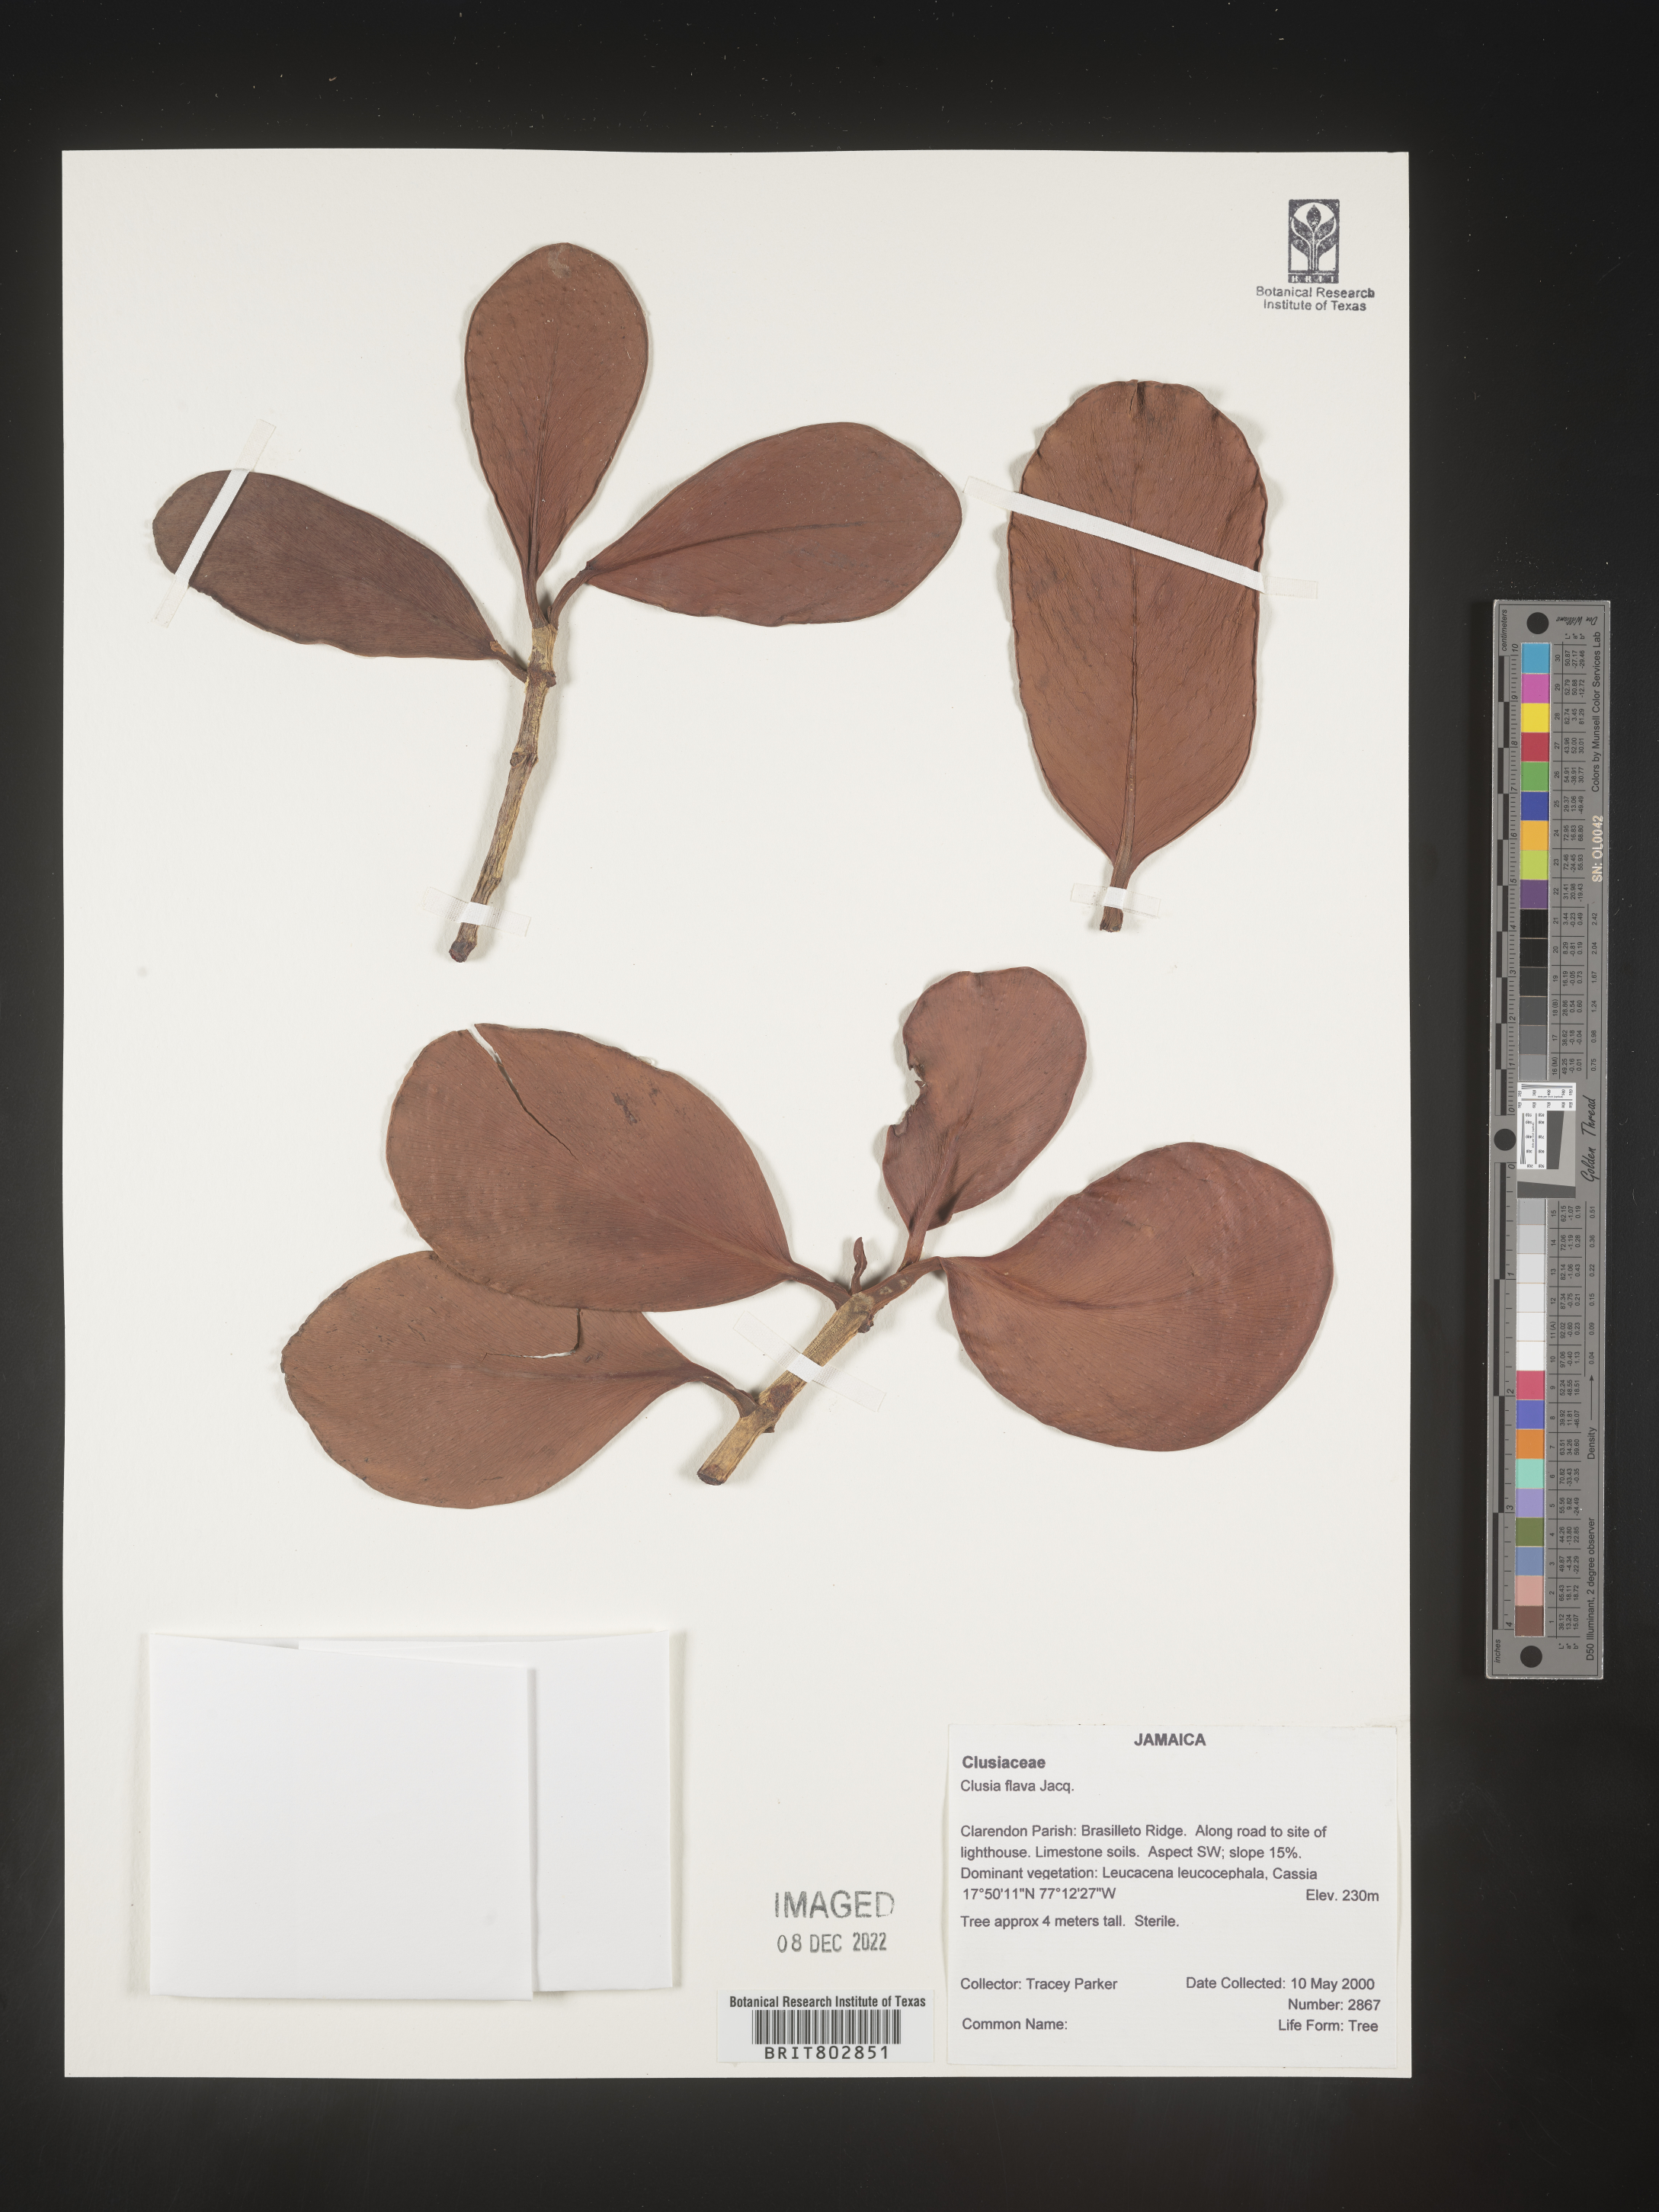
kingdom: Plantae
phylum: Tracheophyta
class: Magnoliopsida
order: Malpighiales
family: Clusiaceae
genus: Clusia
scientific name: Clusia
